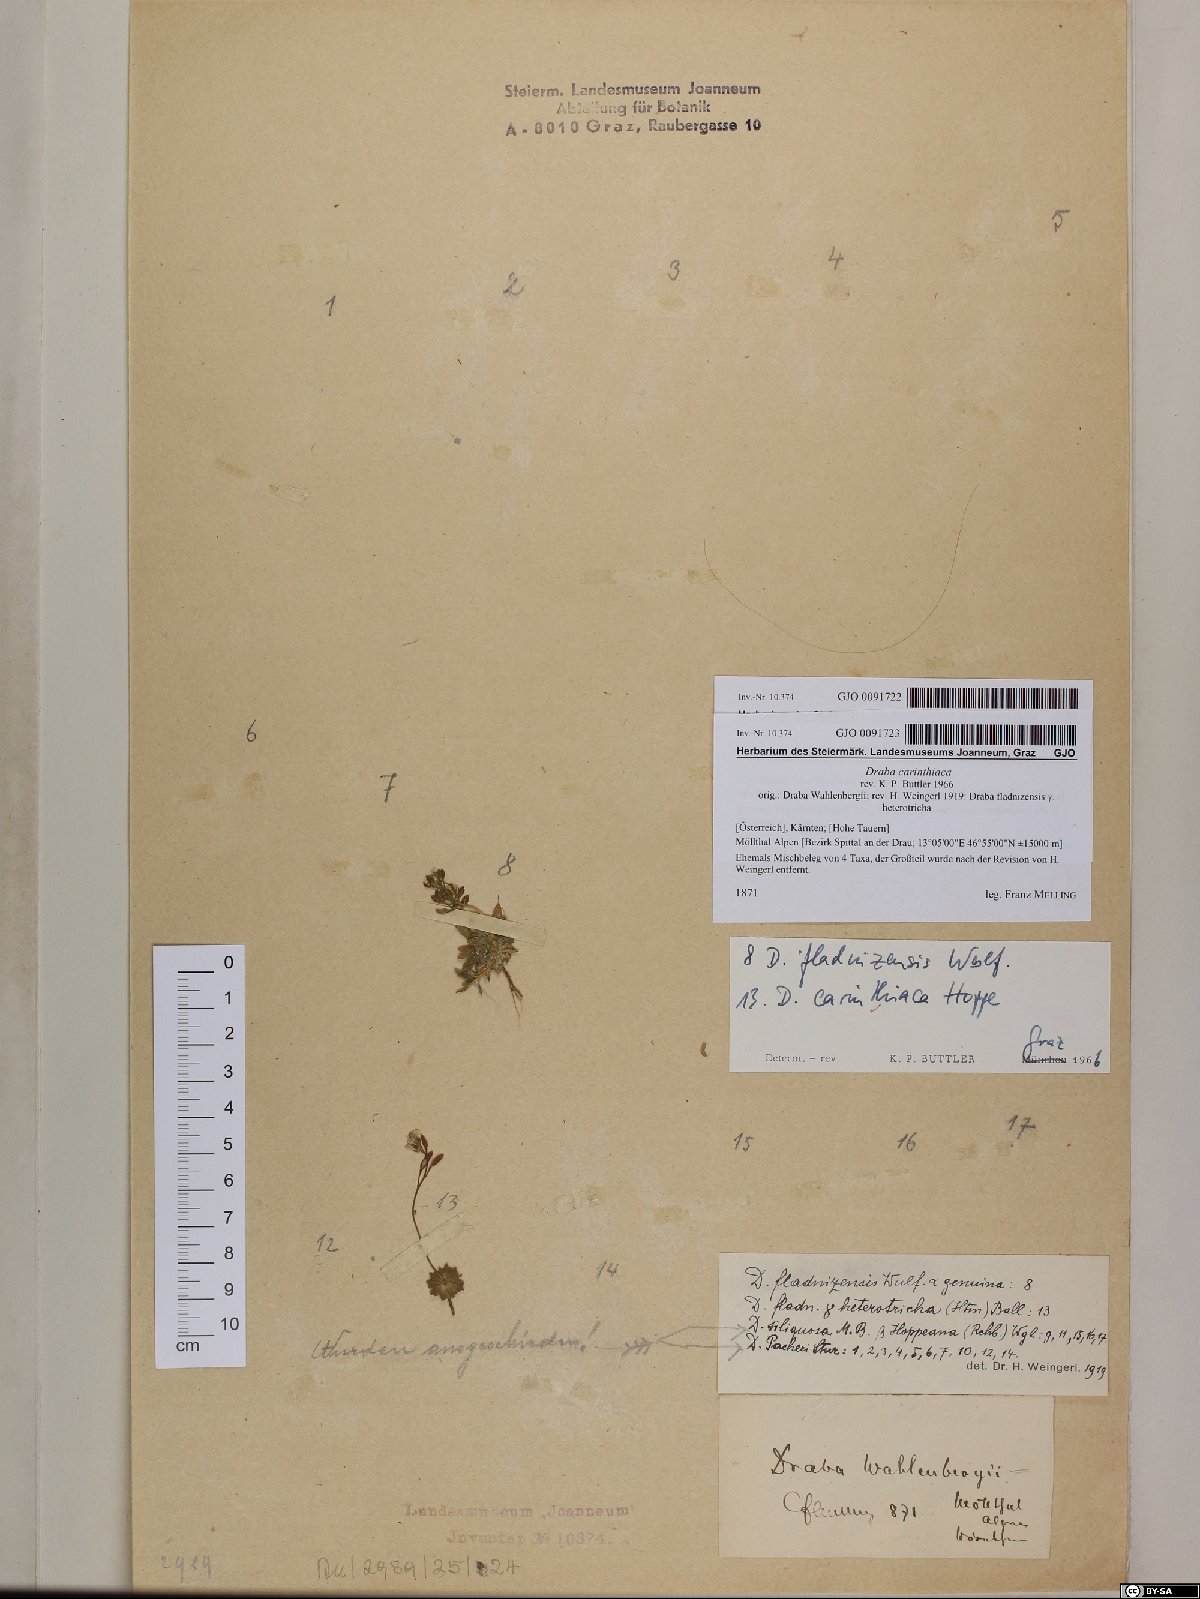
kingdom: Plantae
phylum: Tracheophyta
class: Magnoliopsida
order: Brassicales
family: Brassicaceae
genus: Draba
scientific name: Draba siliquosa
